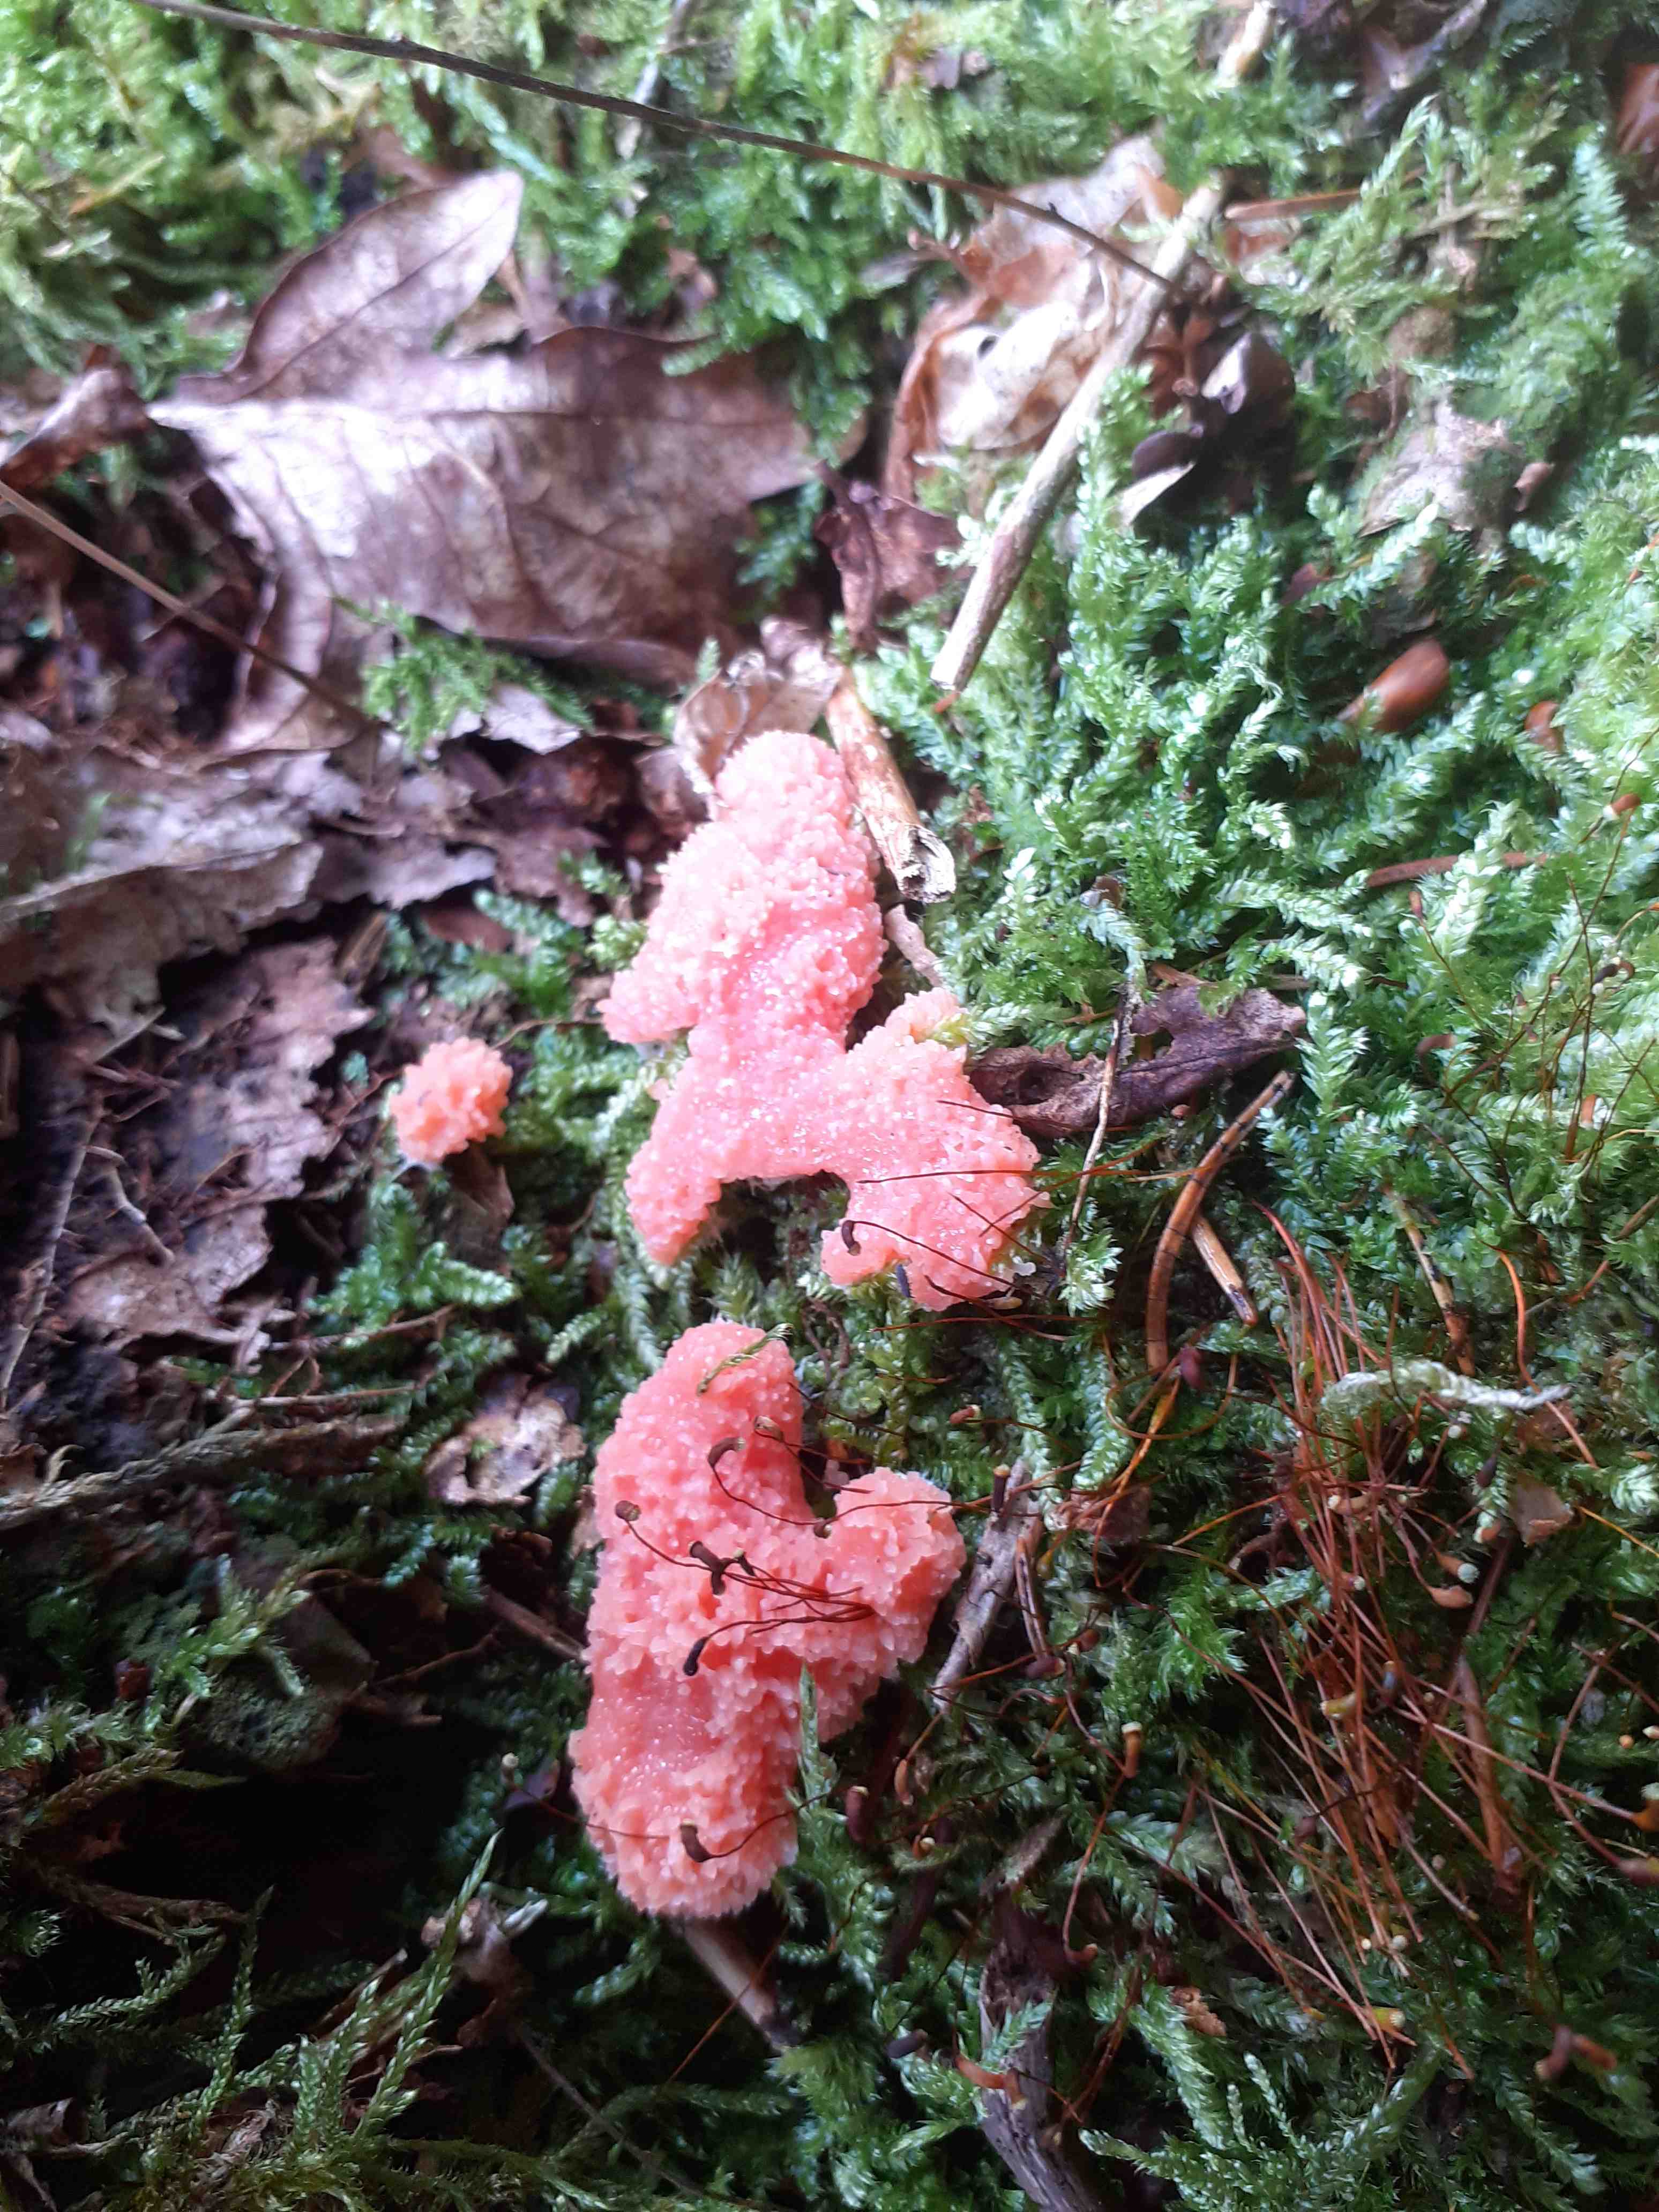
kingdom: Protozoa
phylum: Mycetozoa
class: Myxomycetes
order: Cribrariales
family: Tubiferaceae
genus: Tubifera
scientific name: Tubifera ferruginosa
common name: kanel-støvrør
